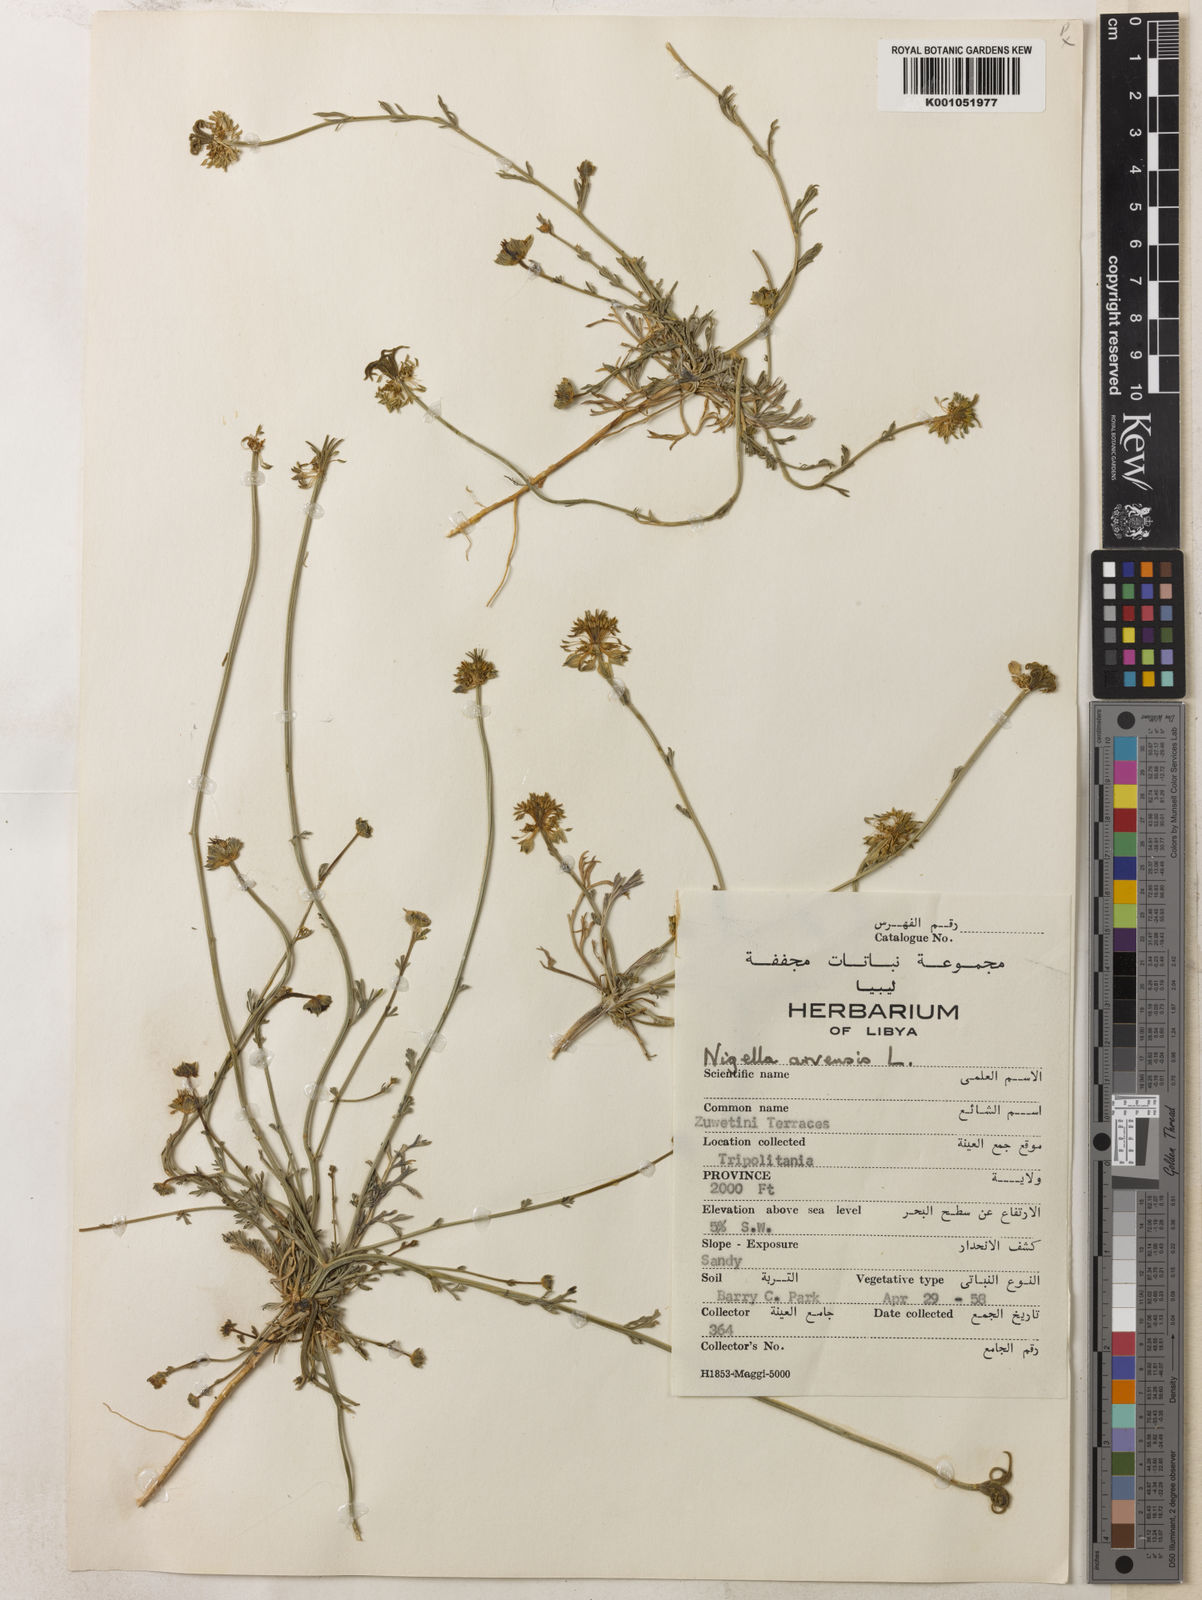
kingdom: Plantae
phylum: Tracheophyta
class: Magnoliopsida
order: Ranunculales
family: Ranunculaceae
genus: Nigella
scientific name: Nigella arvensis
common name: Wild fennel-flower
